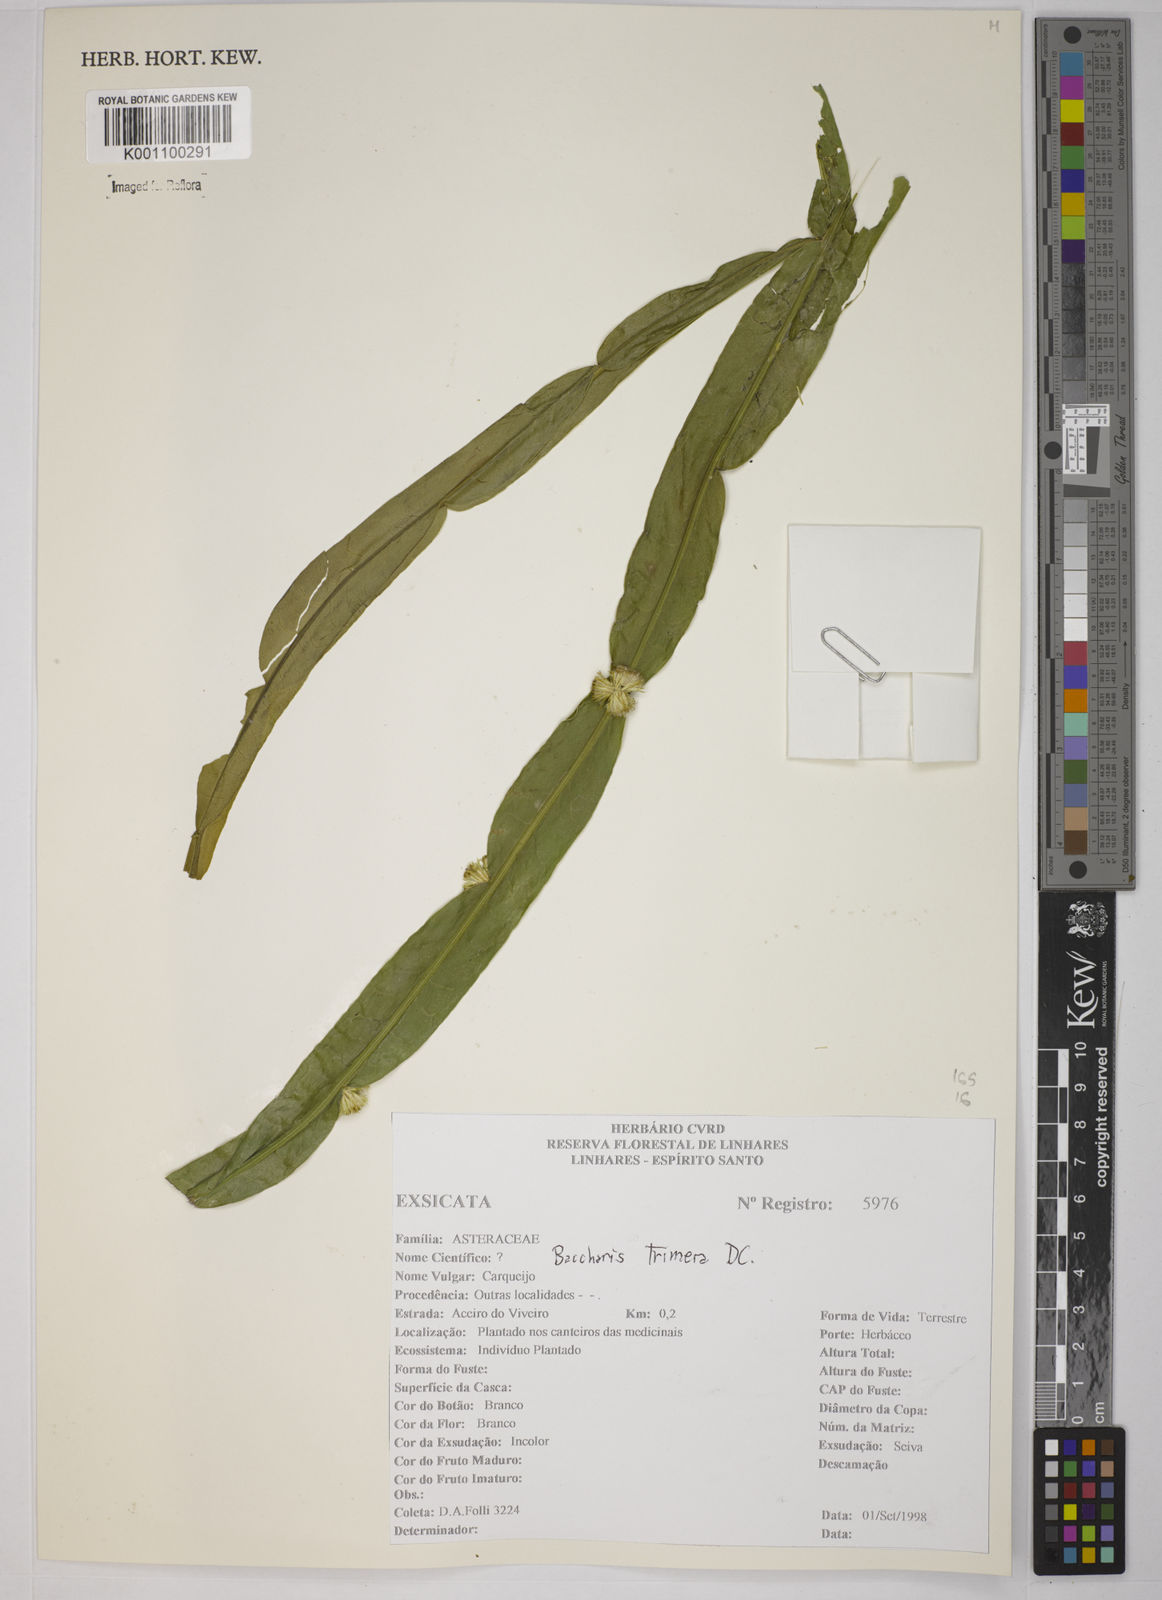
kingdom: Plantae
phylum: Tracheophyta
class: Magnoliopsida
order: Asterales
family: Asteraceae
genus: Baccharis
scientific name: Baccharis trimera
